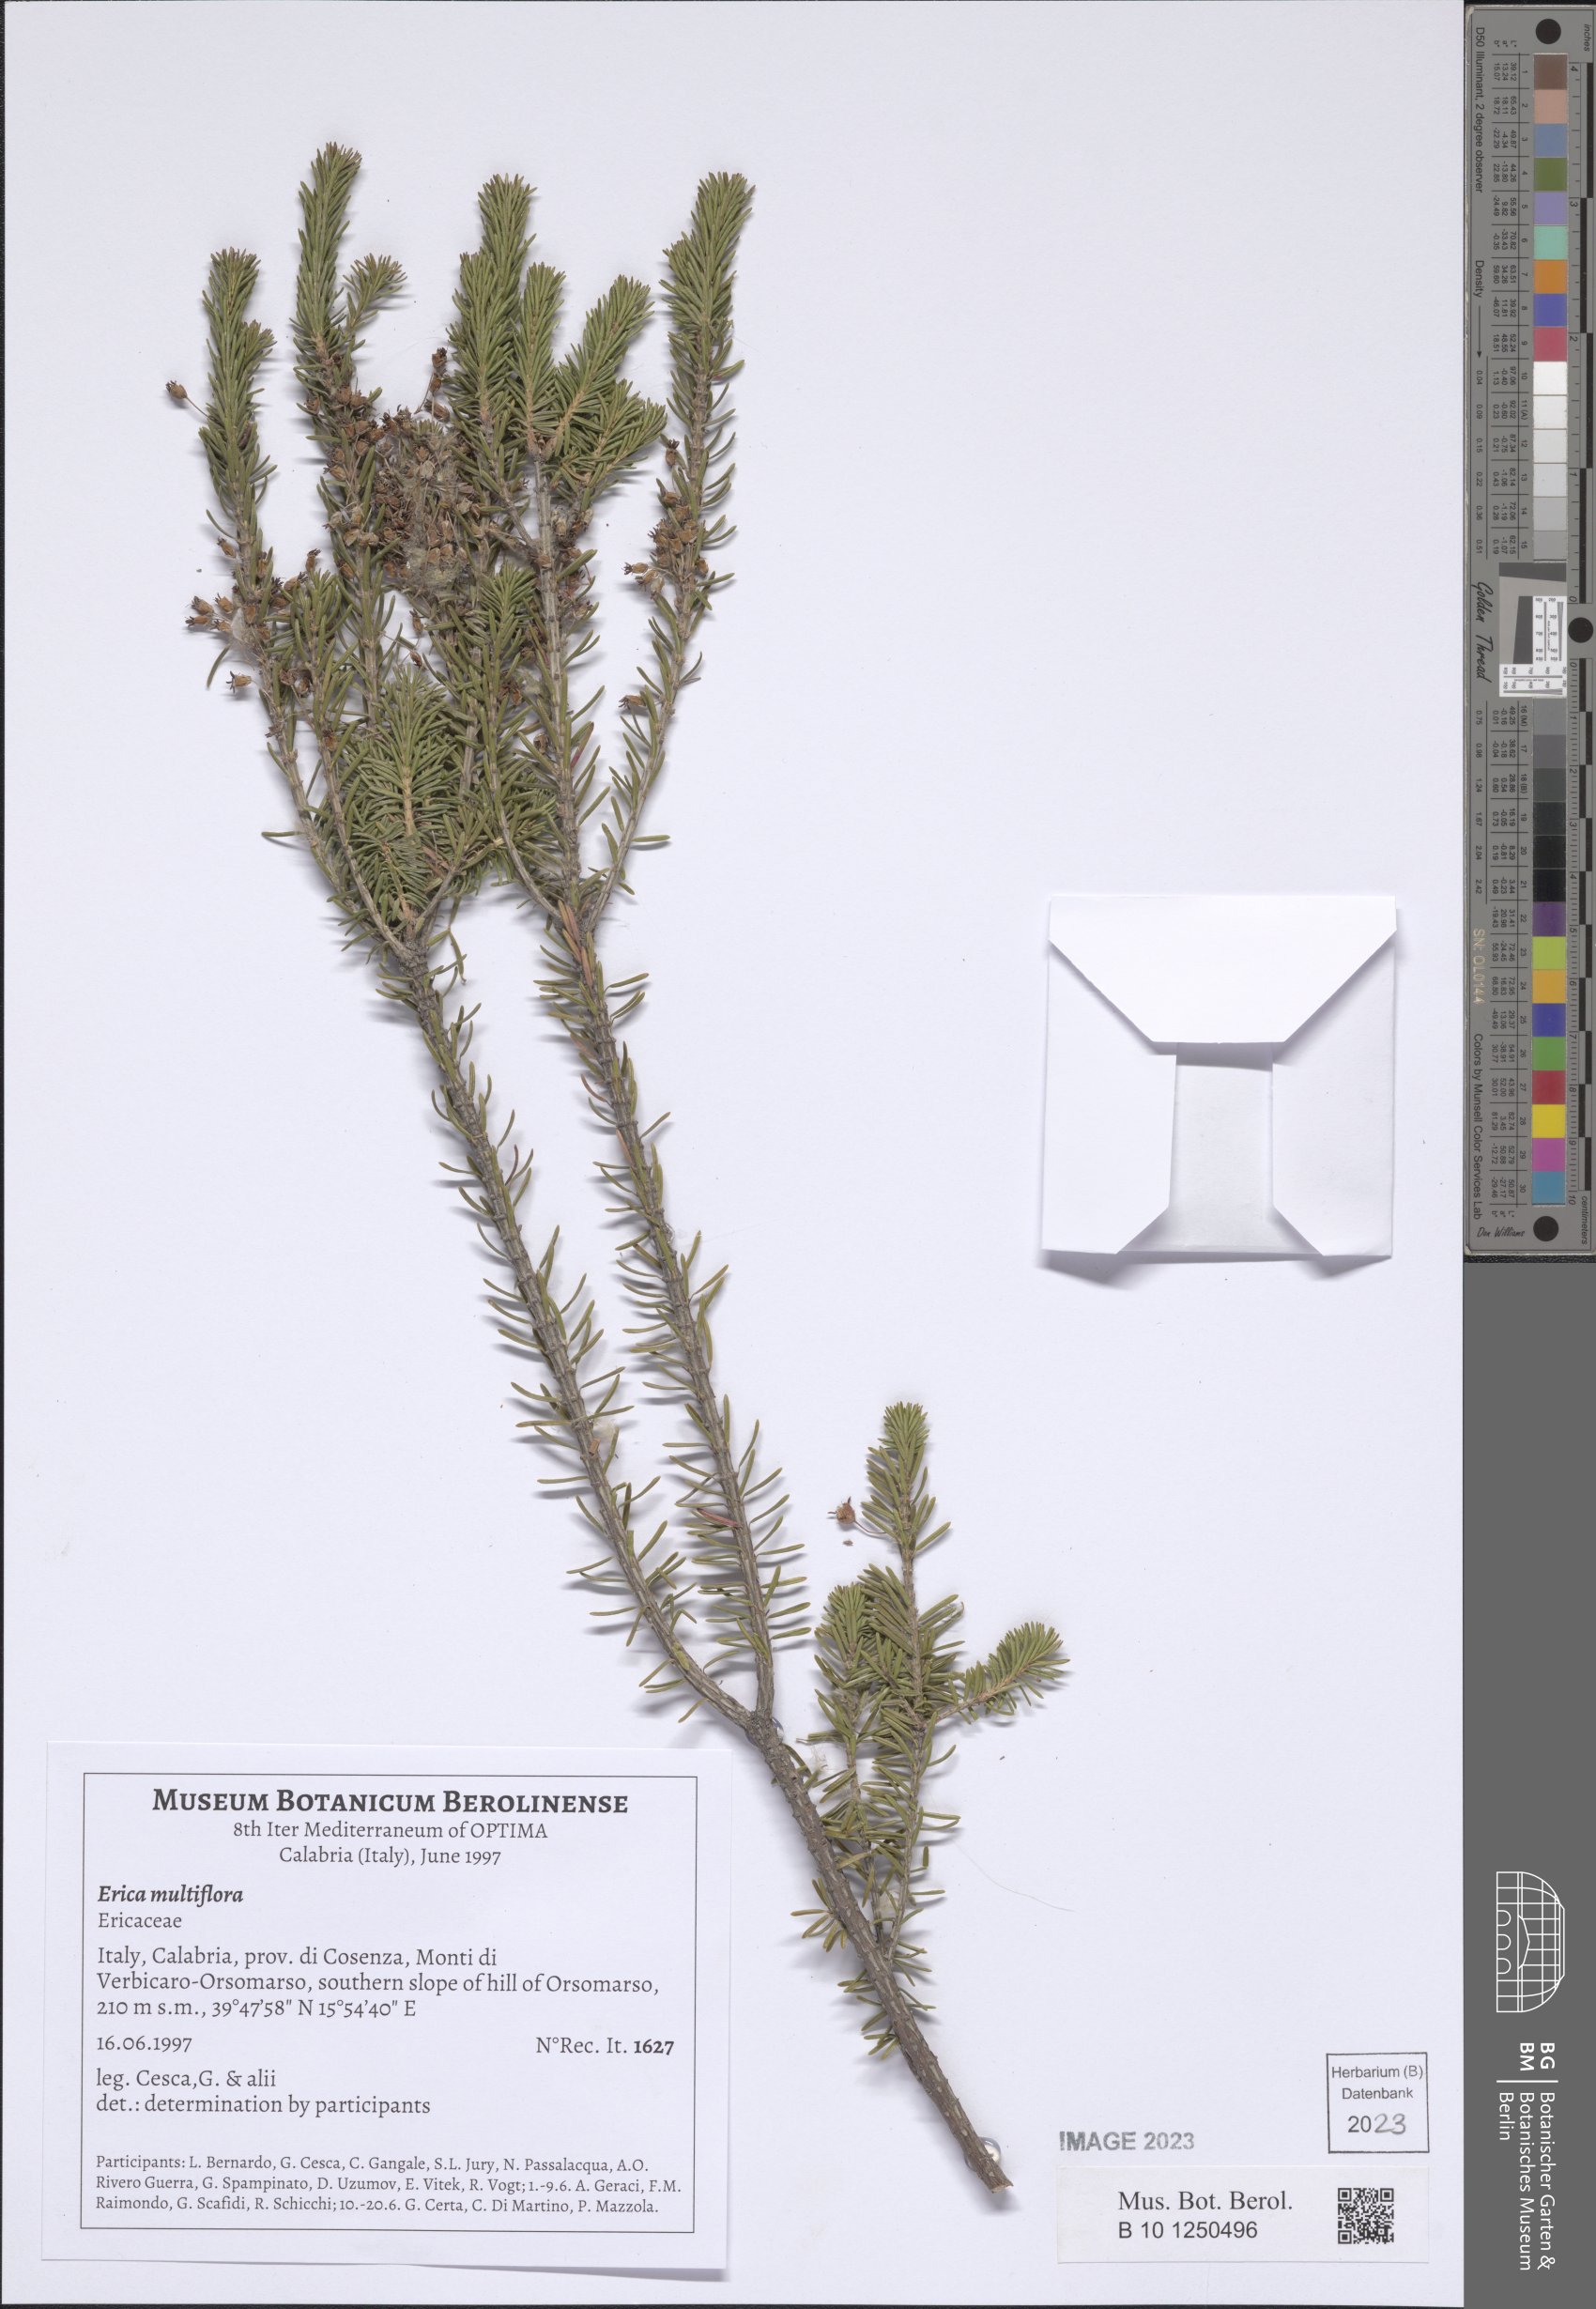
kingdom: Plantae
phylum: Tracheophyta
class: Magnoliopsida
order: Ericales
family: Ericaceae
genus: Erica
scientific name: Erica multiflora
